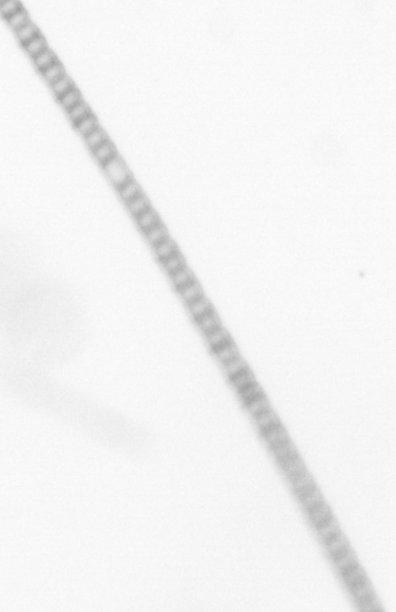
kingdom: Chromista
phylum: Ochrophyta
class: Bacillariophyceae
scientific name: Bacillariophyceae
